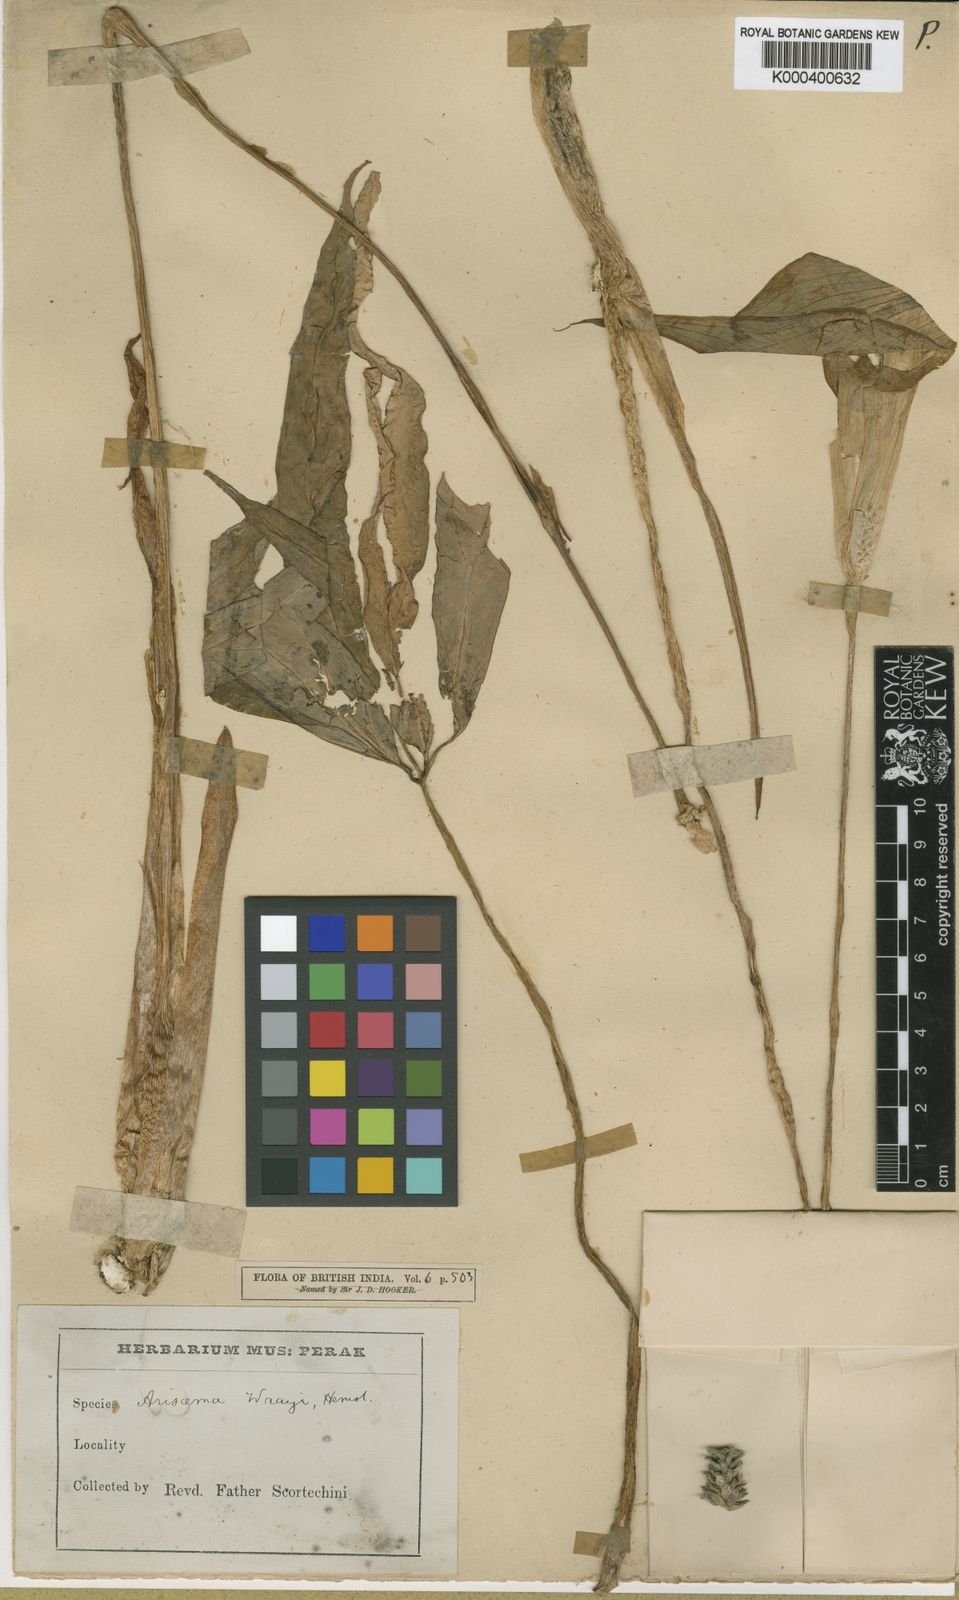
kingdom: Plantae
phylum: Tracheophyta
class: Liliopsida
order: Alismatales
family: Araceae
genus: Arisaema
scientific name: Arisaema wrayi
